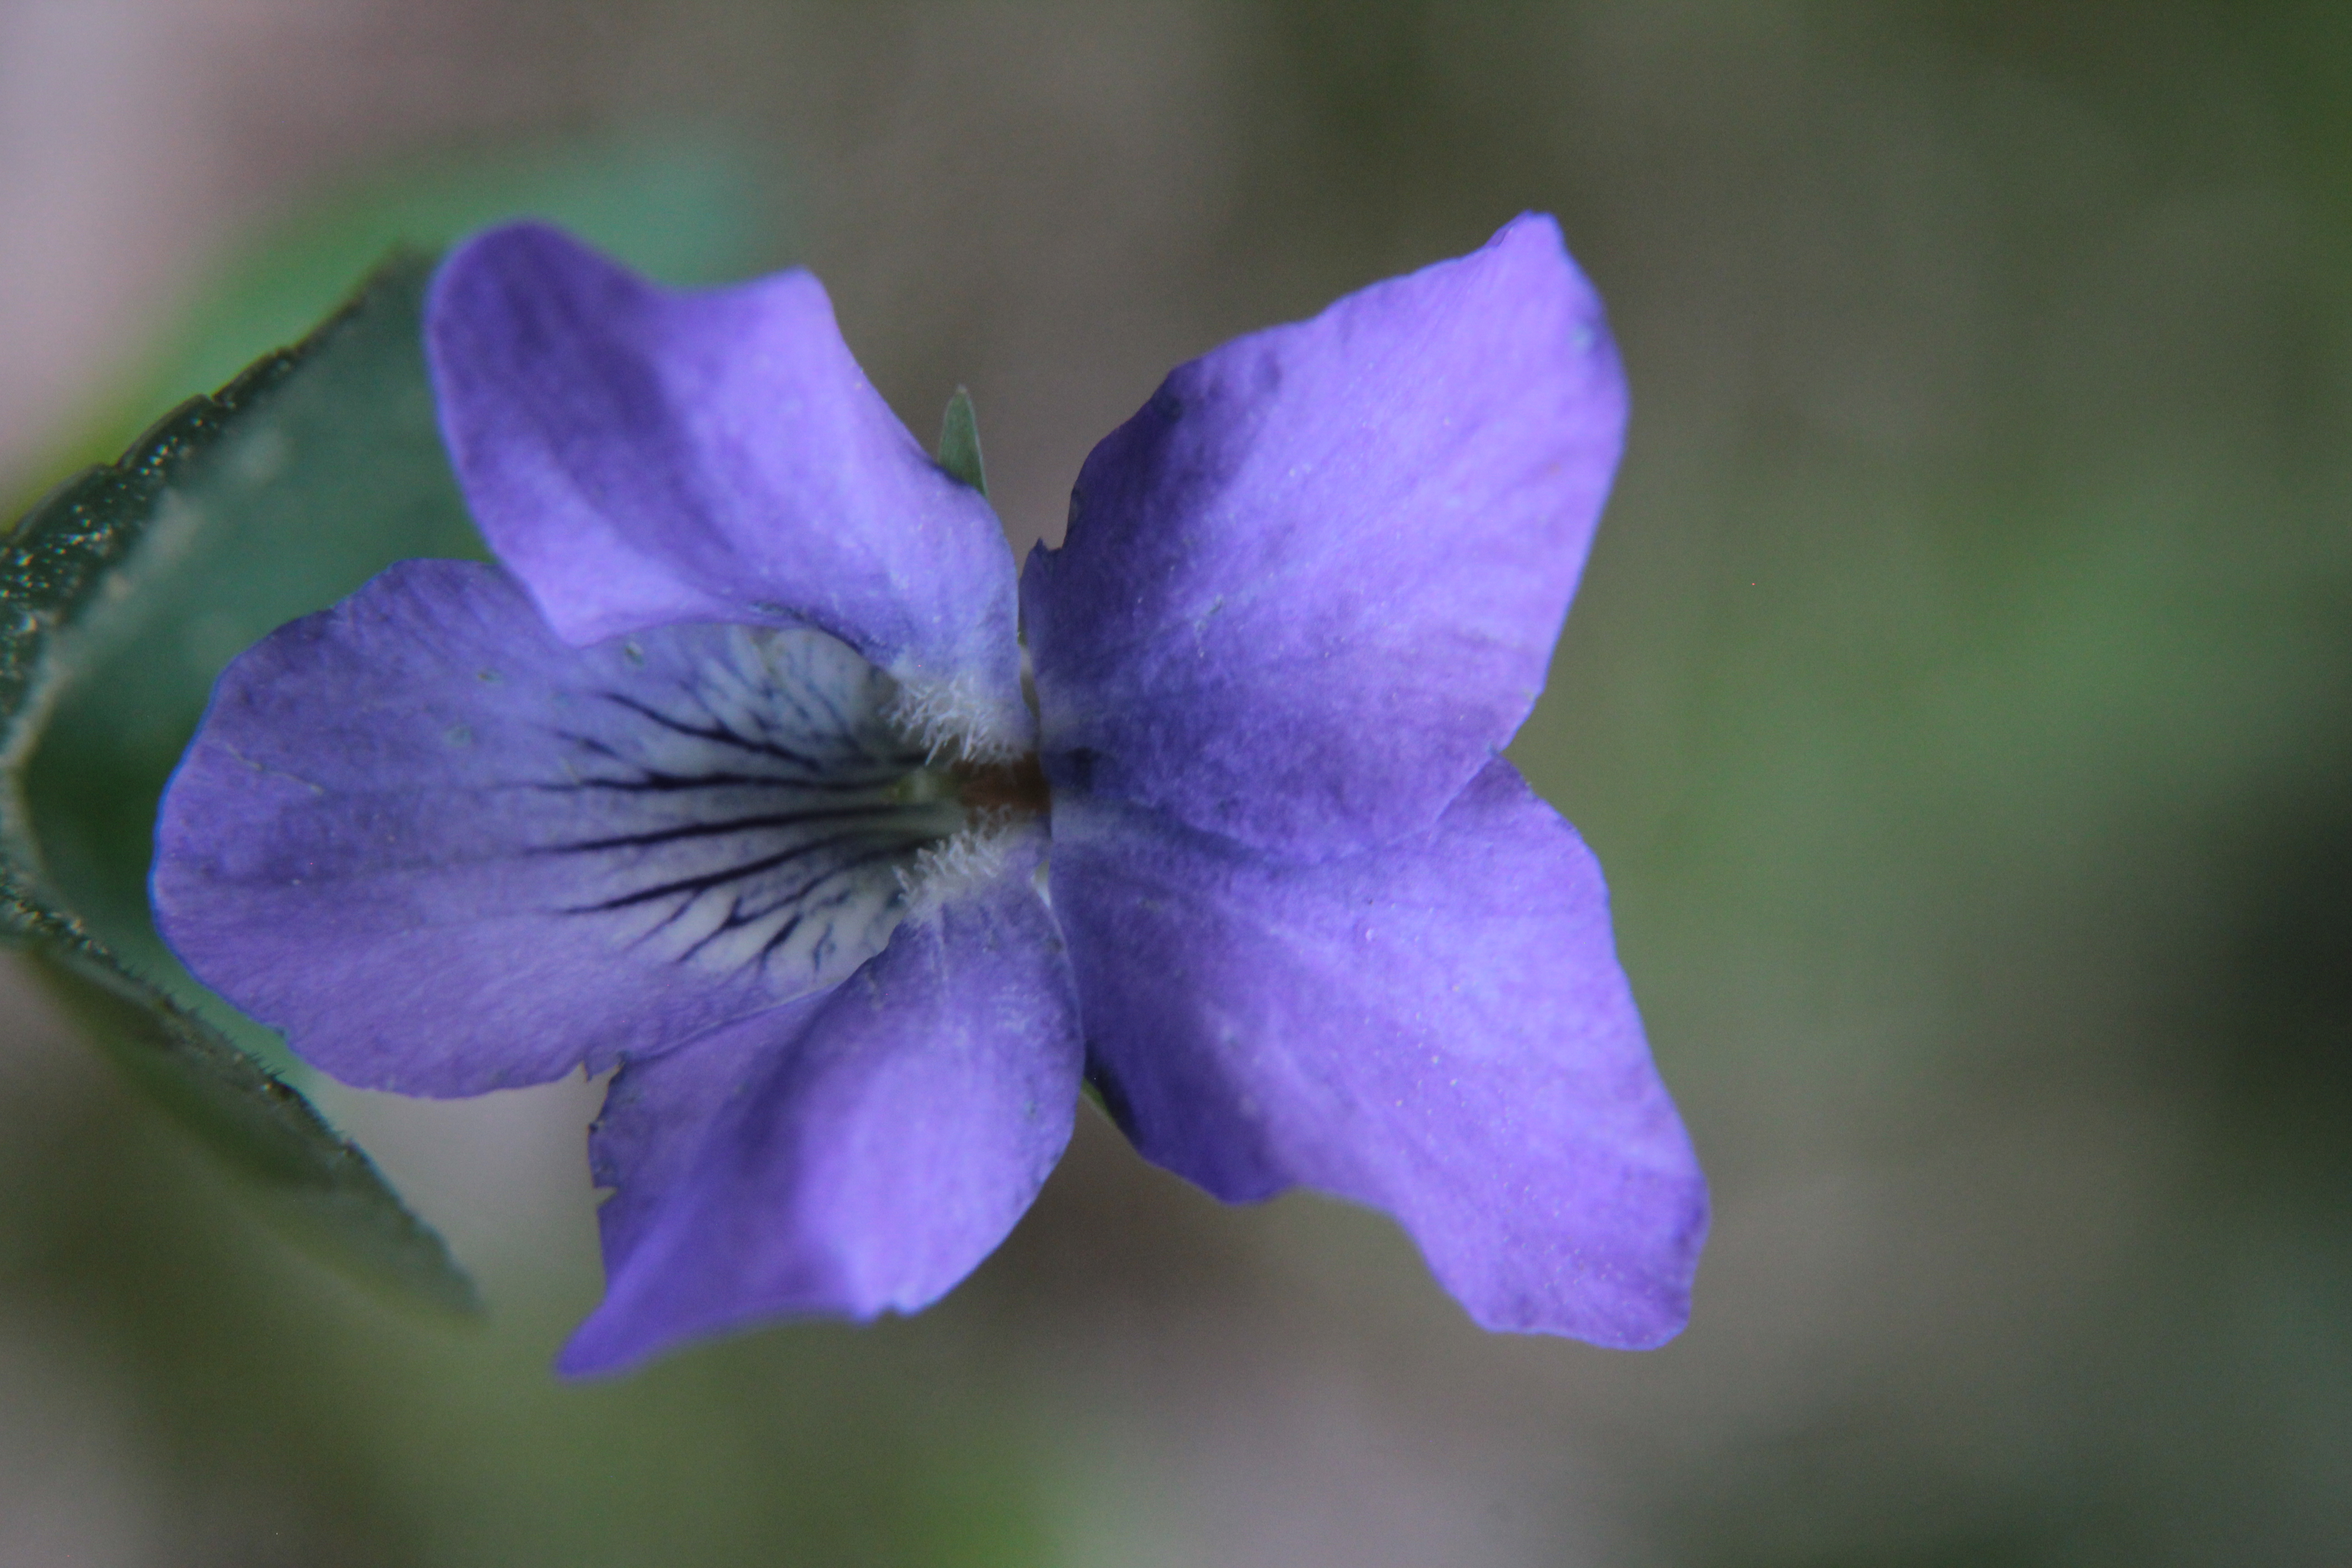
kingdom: Plantae
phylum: Tracheophyta
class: Magnoliopsida
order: Malpighiales
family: Violaceae
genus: Viola
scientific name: Viola
